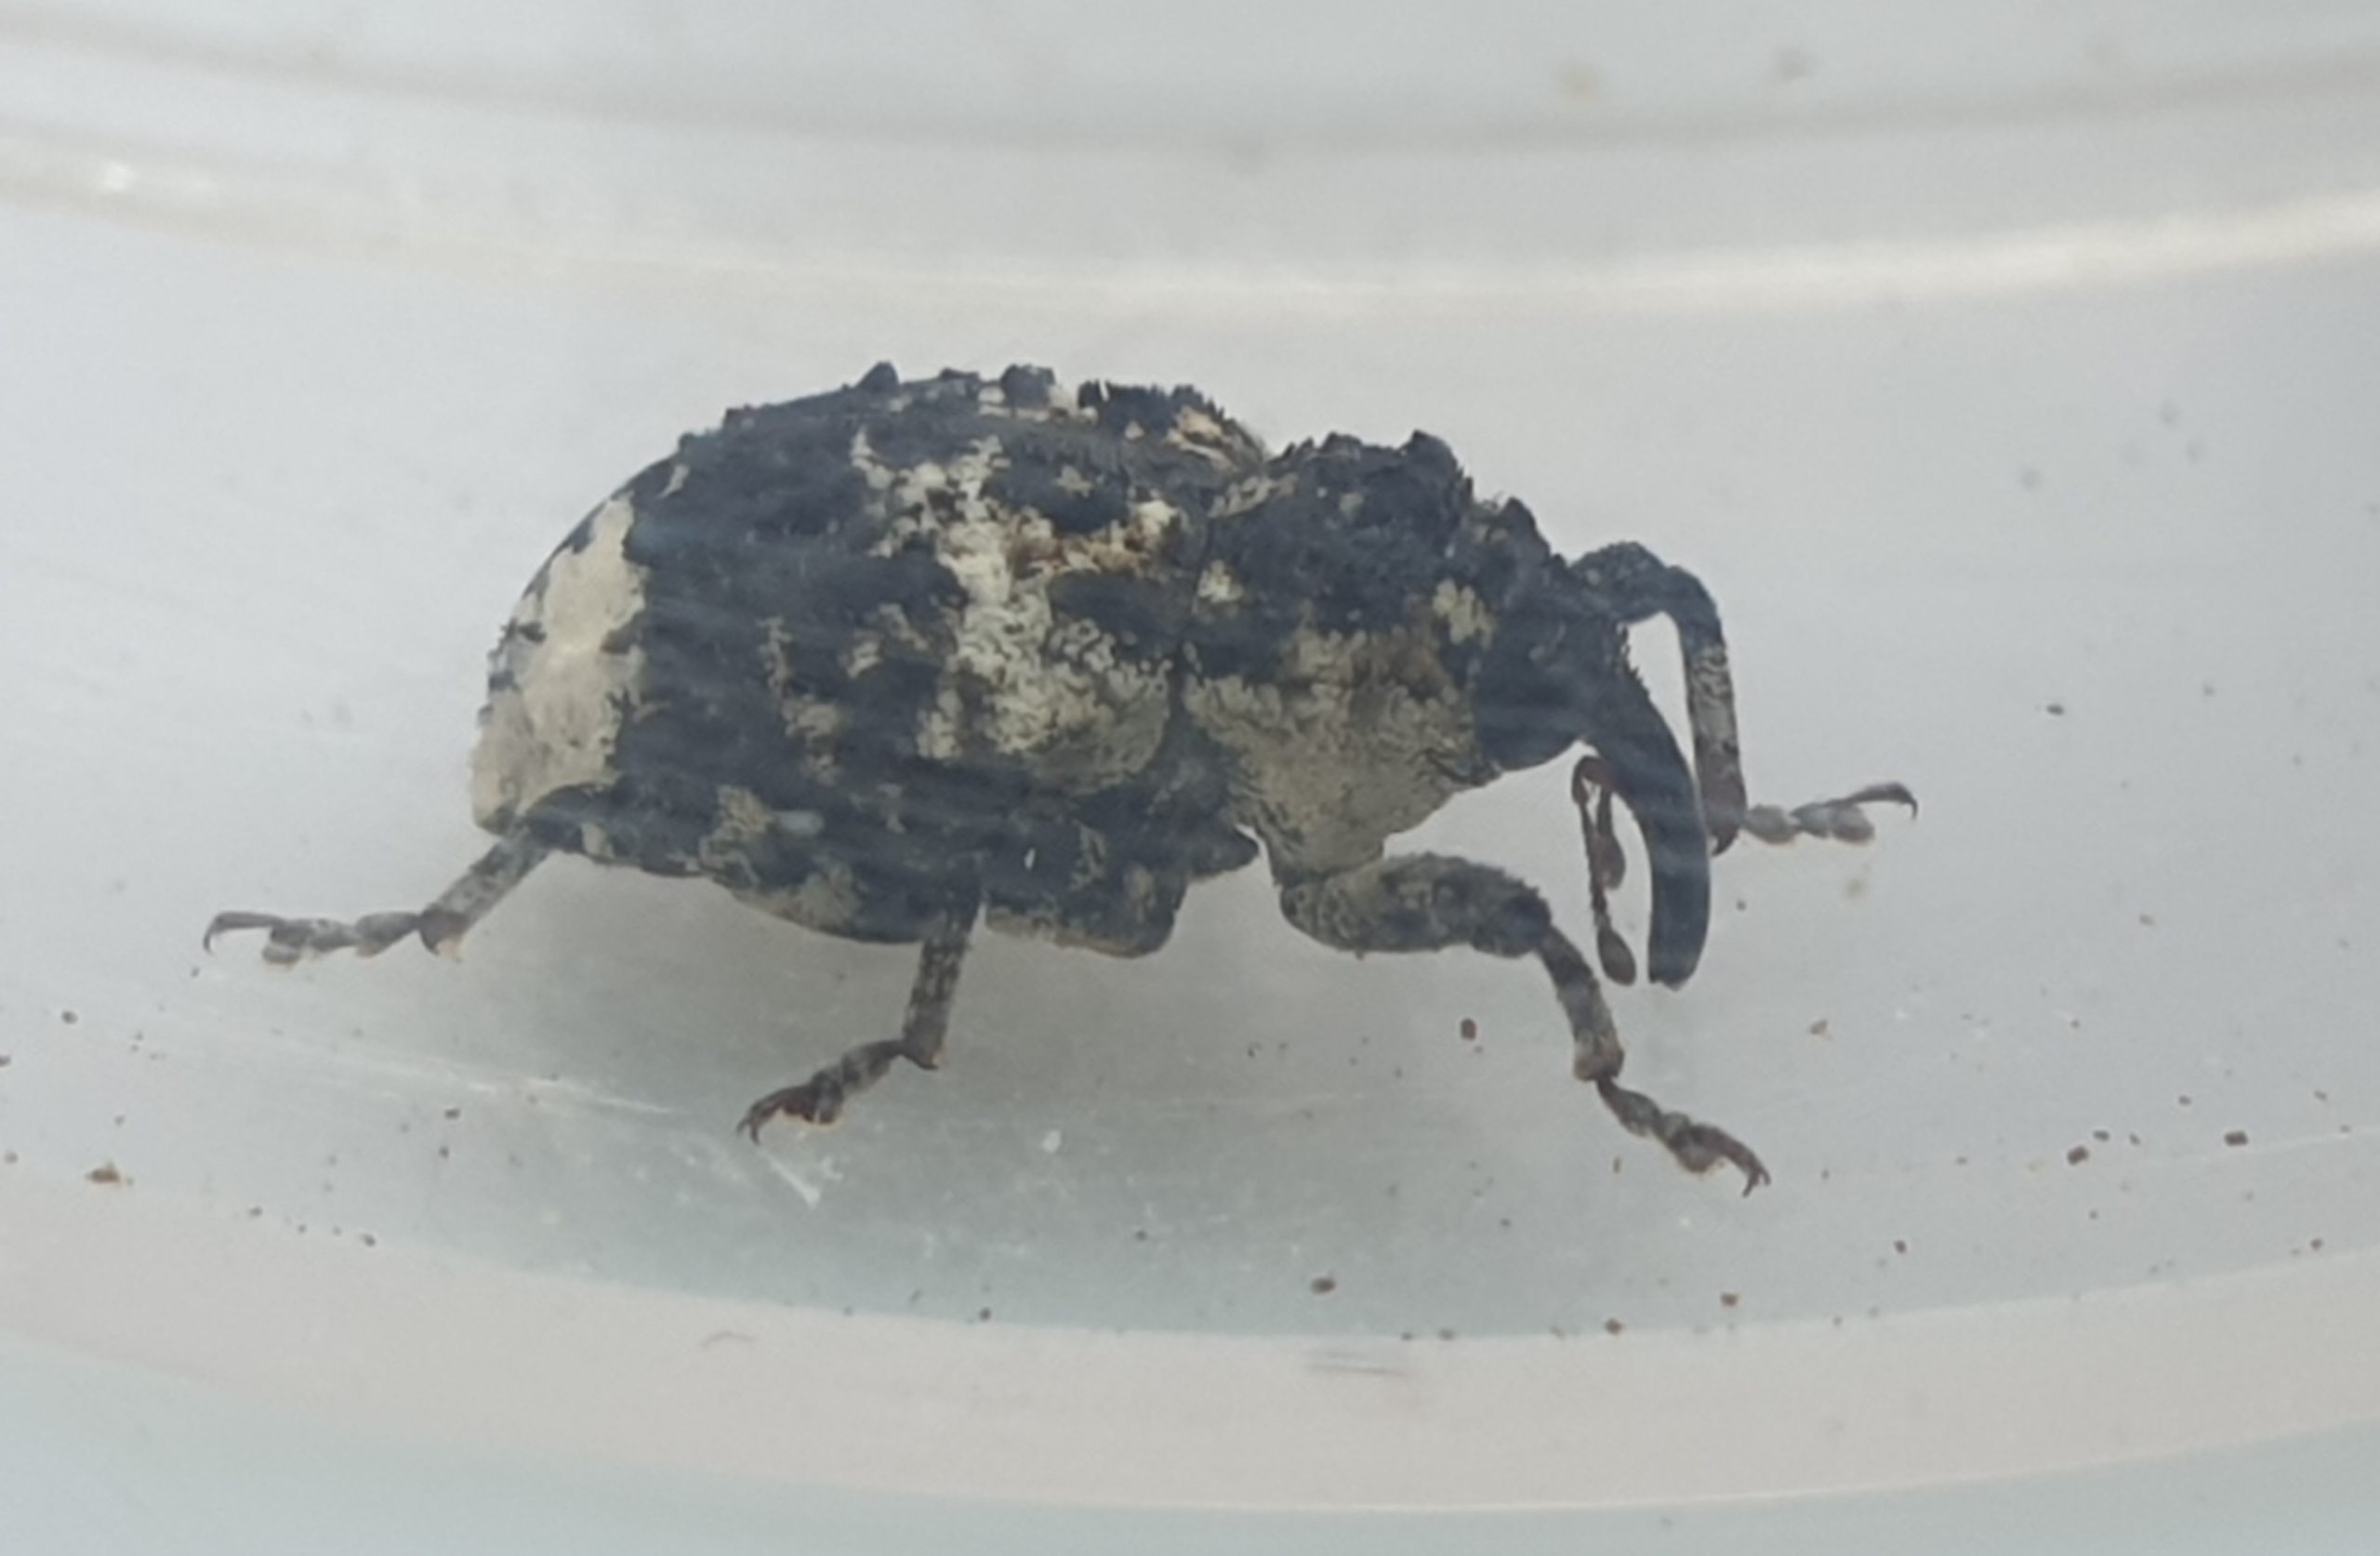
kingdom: Animalia
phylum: Arthropoda
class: Insecta
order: Coleoptera
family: Curculionidae
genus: Cryptorhynchus
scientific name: Cryptorhynchus lapathi
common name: Ellesnudebille
